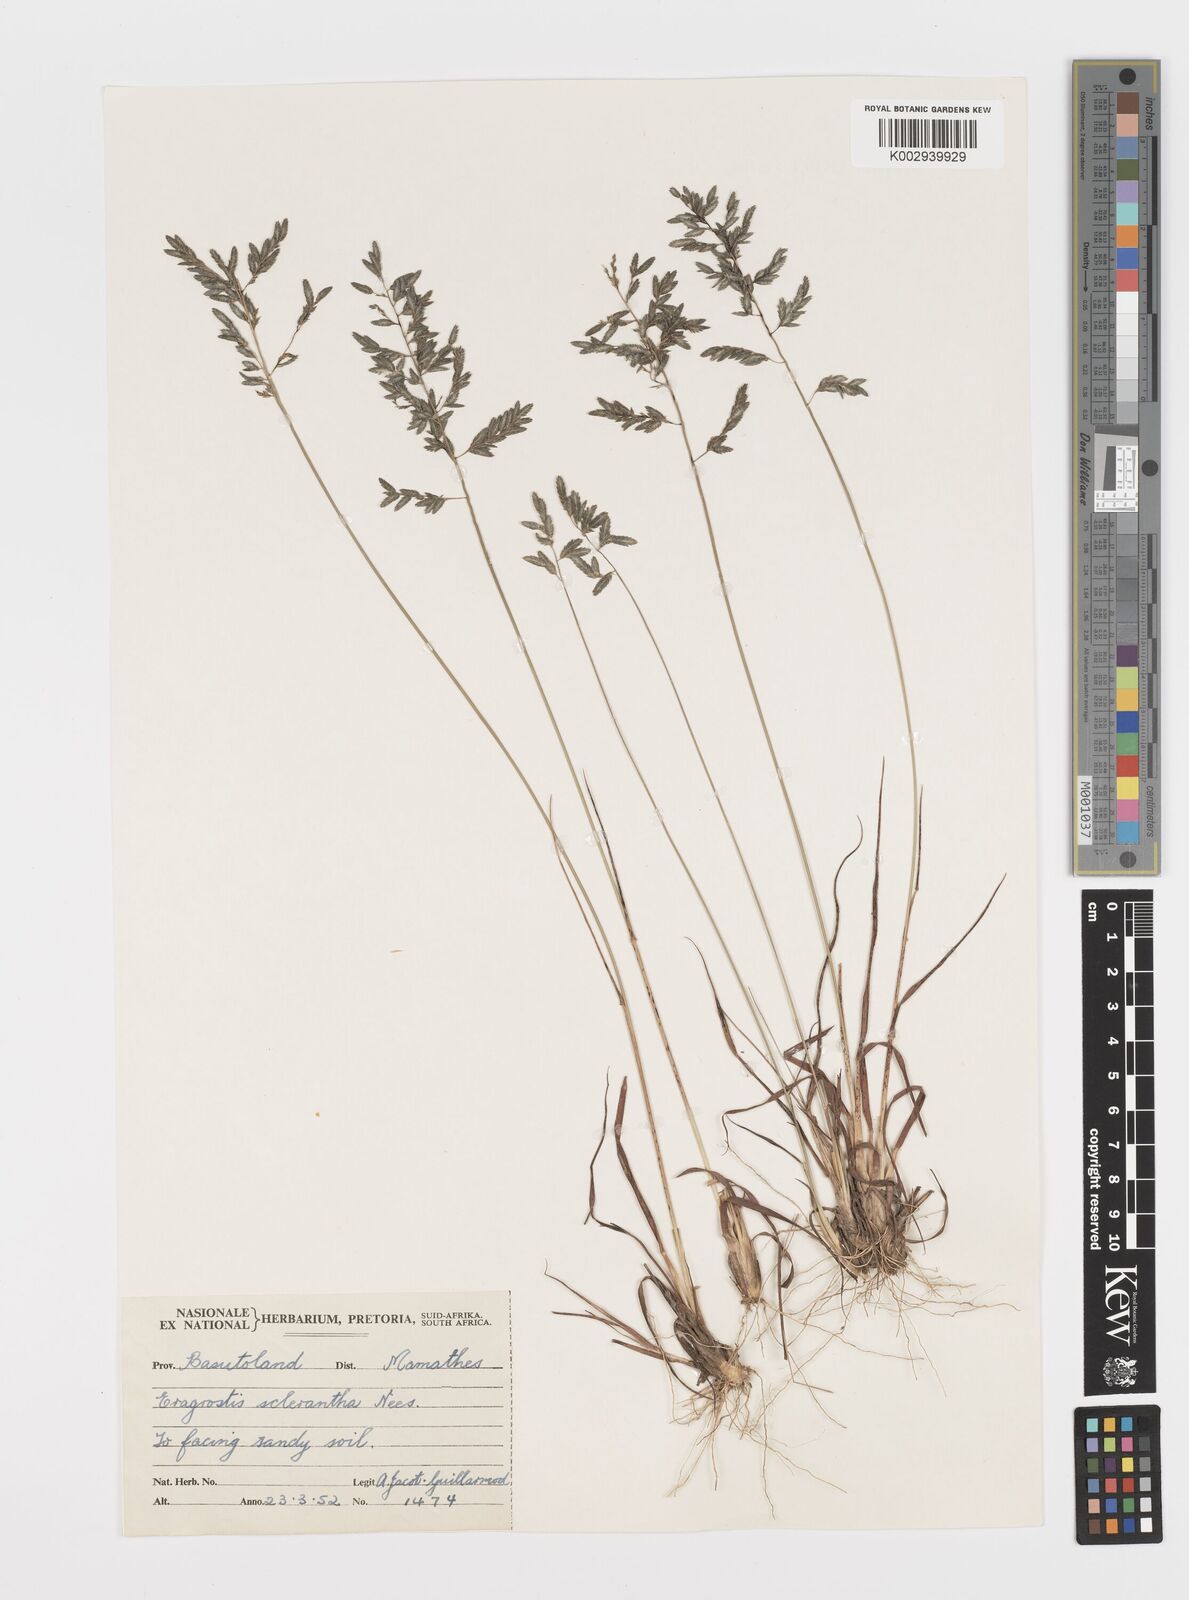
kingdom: Plantae
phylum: Tracheophyta
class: Liliopsida
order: Poales
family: Poaceae
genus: Eragrostis
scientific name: Eragrostis sclerantha
